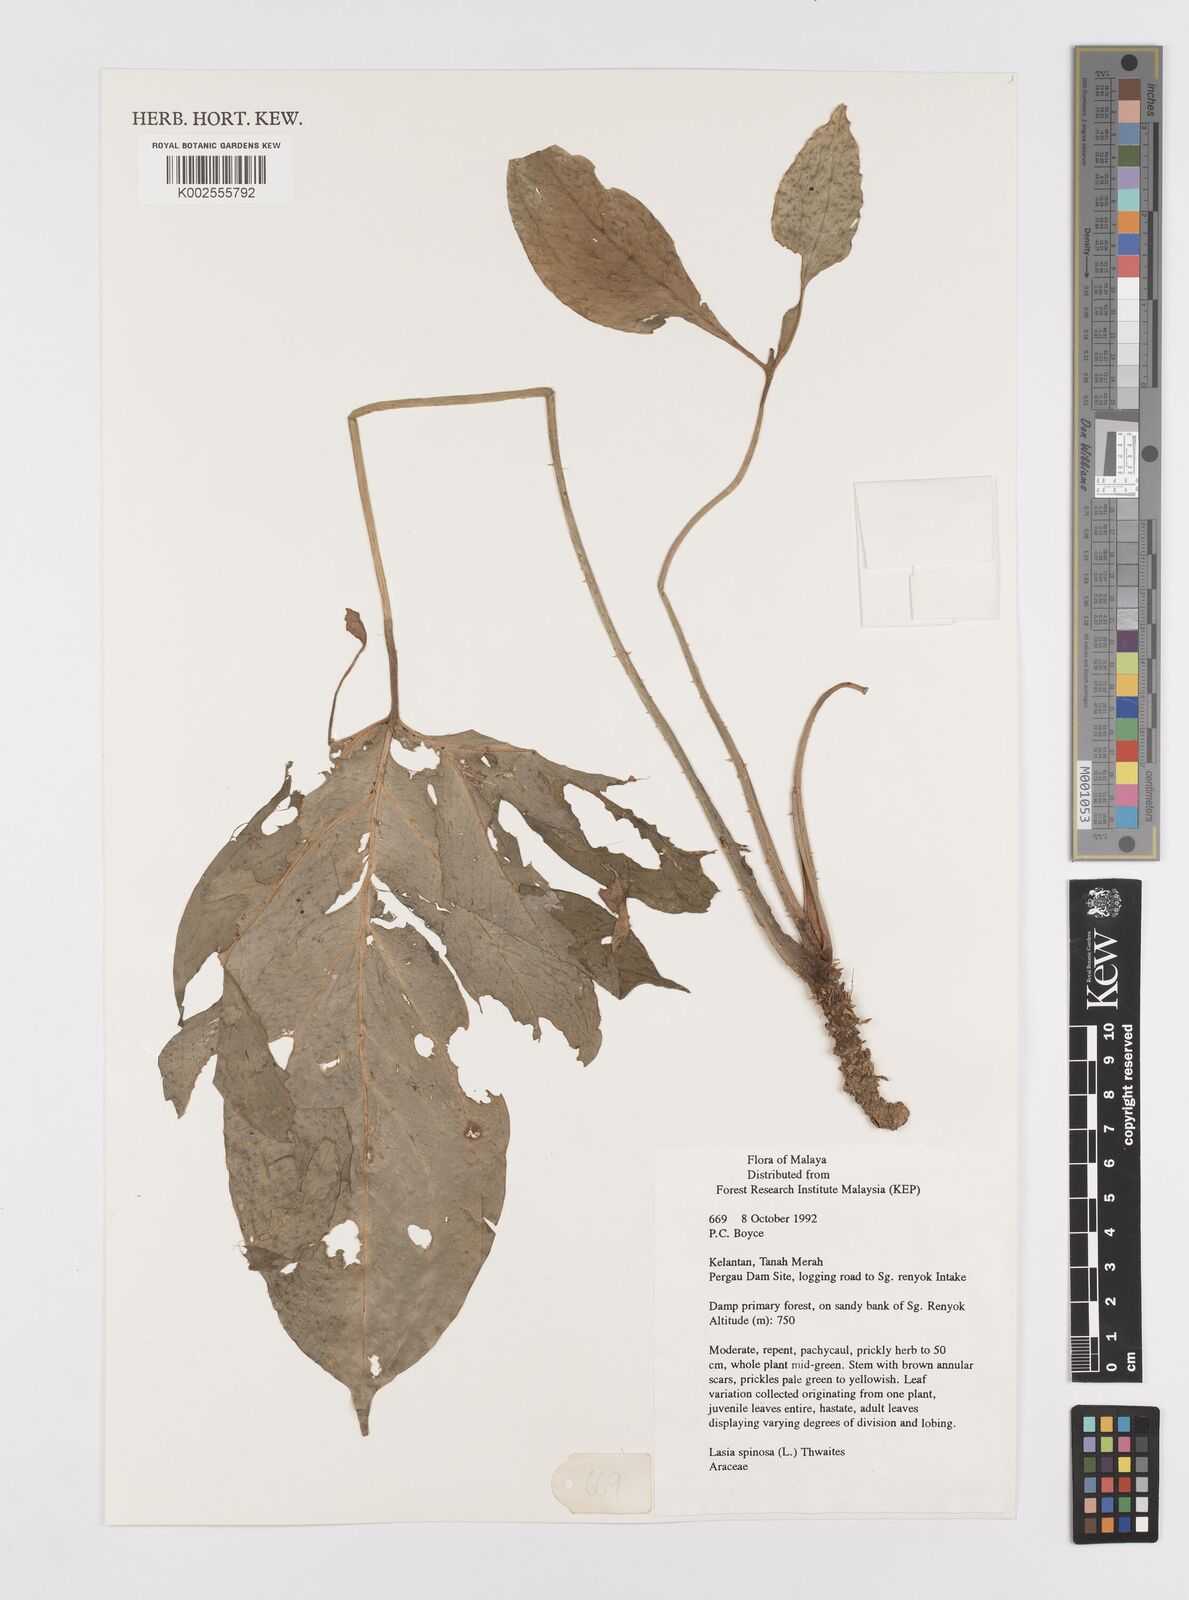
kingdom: Plantae
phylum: Tracheophyta
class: Liliopsida
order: Alismatales
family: Araceae
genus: Lasia
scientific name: Lasia spinosa
